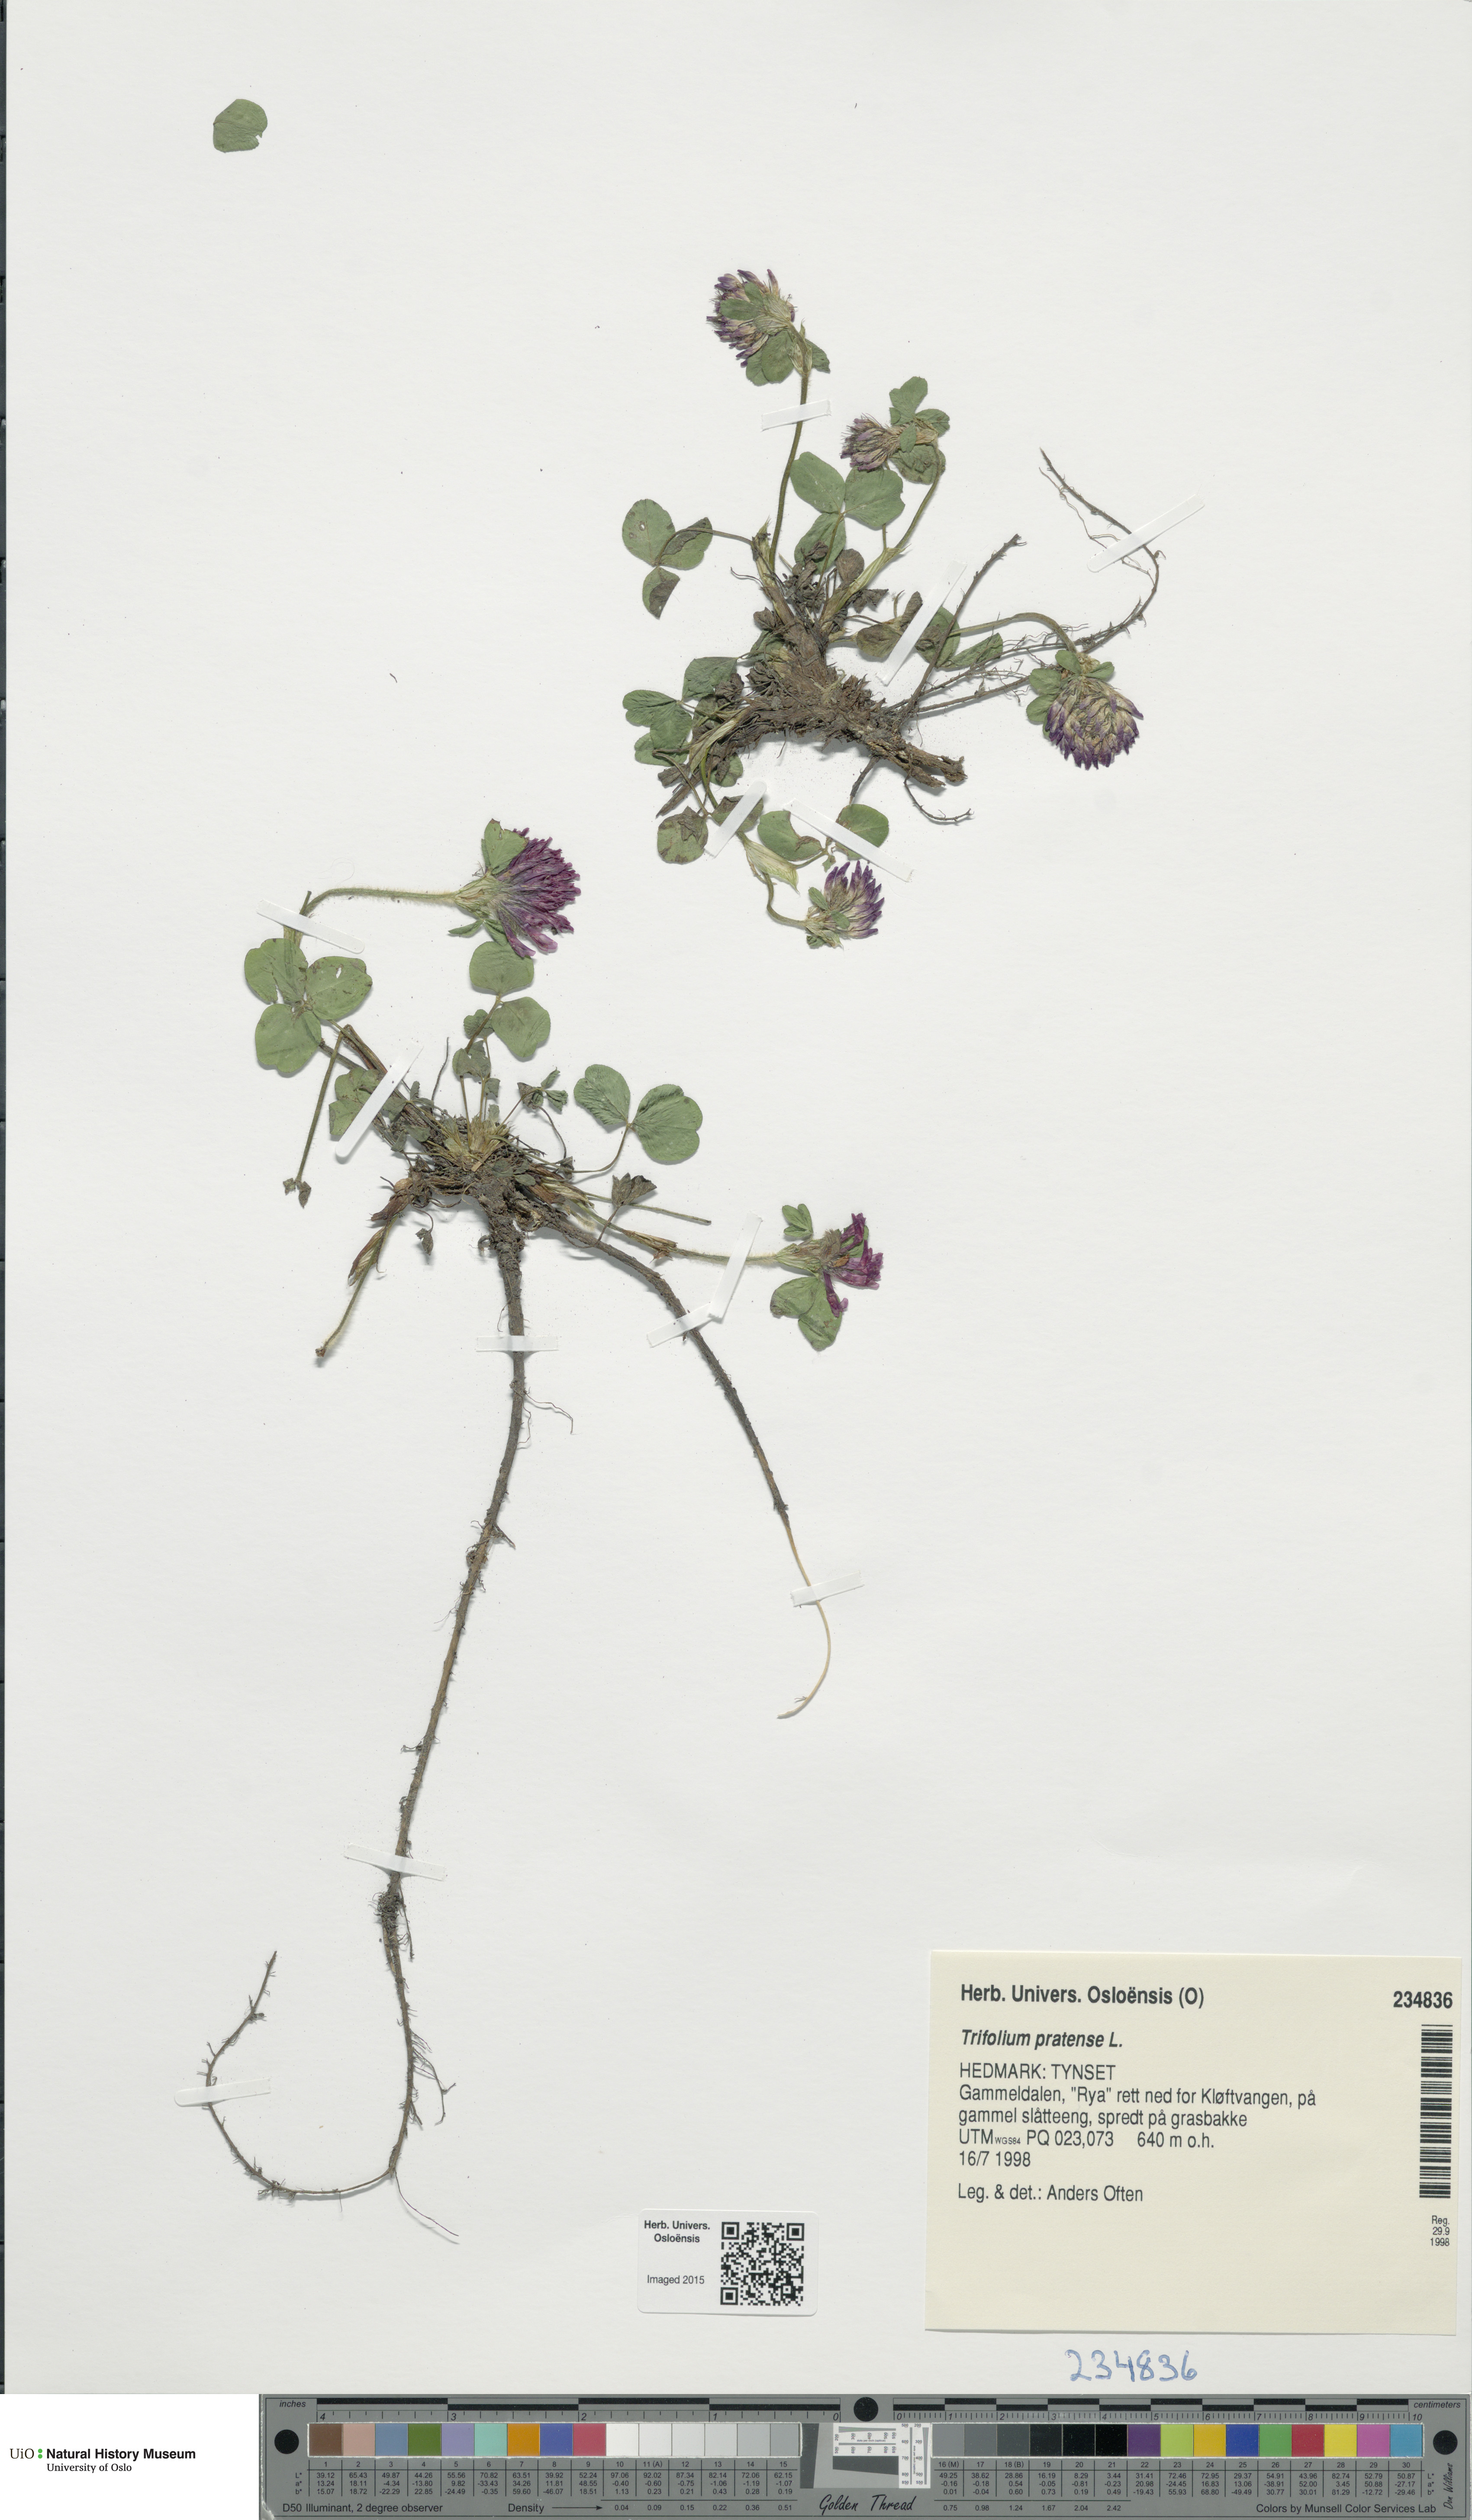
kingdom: Plantae
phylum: Tracheophyta
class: Magnoliopsida
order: Fabales
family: Fabaceae
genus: Trifolium
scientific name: Trifolium pratense
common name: Red clover
